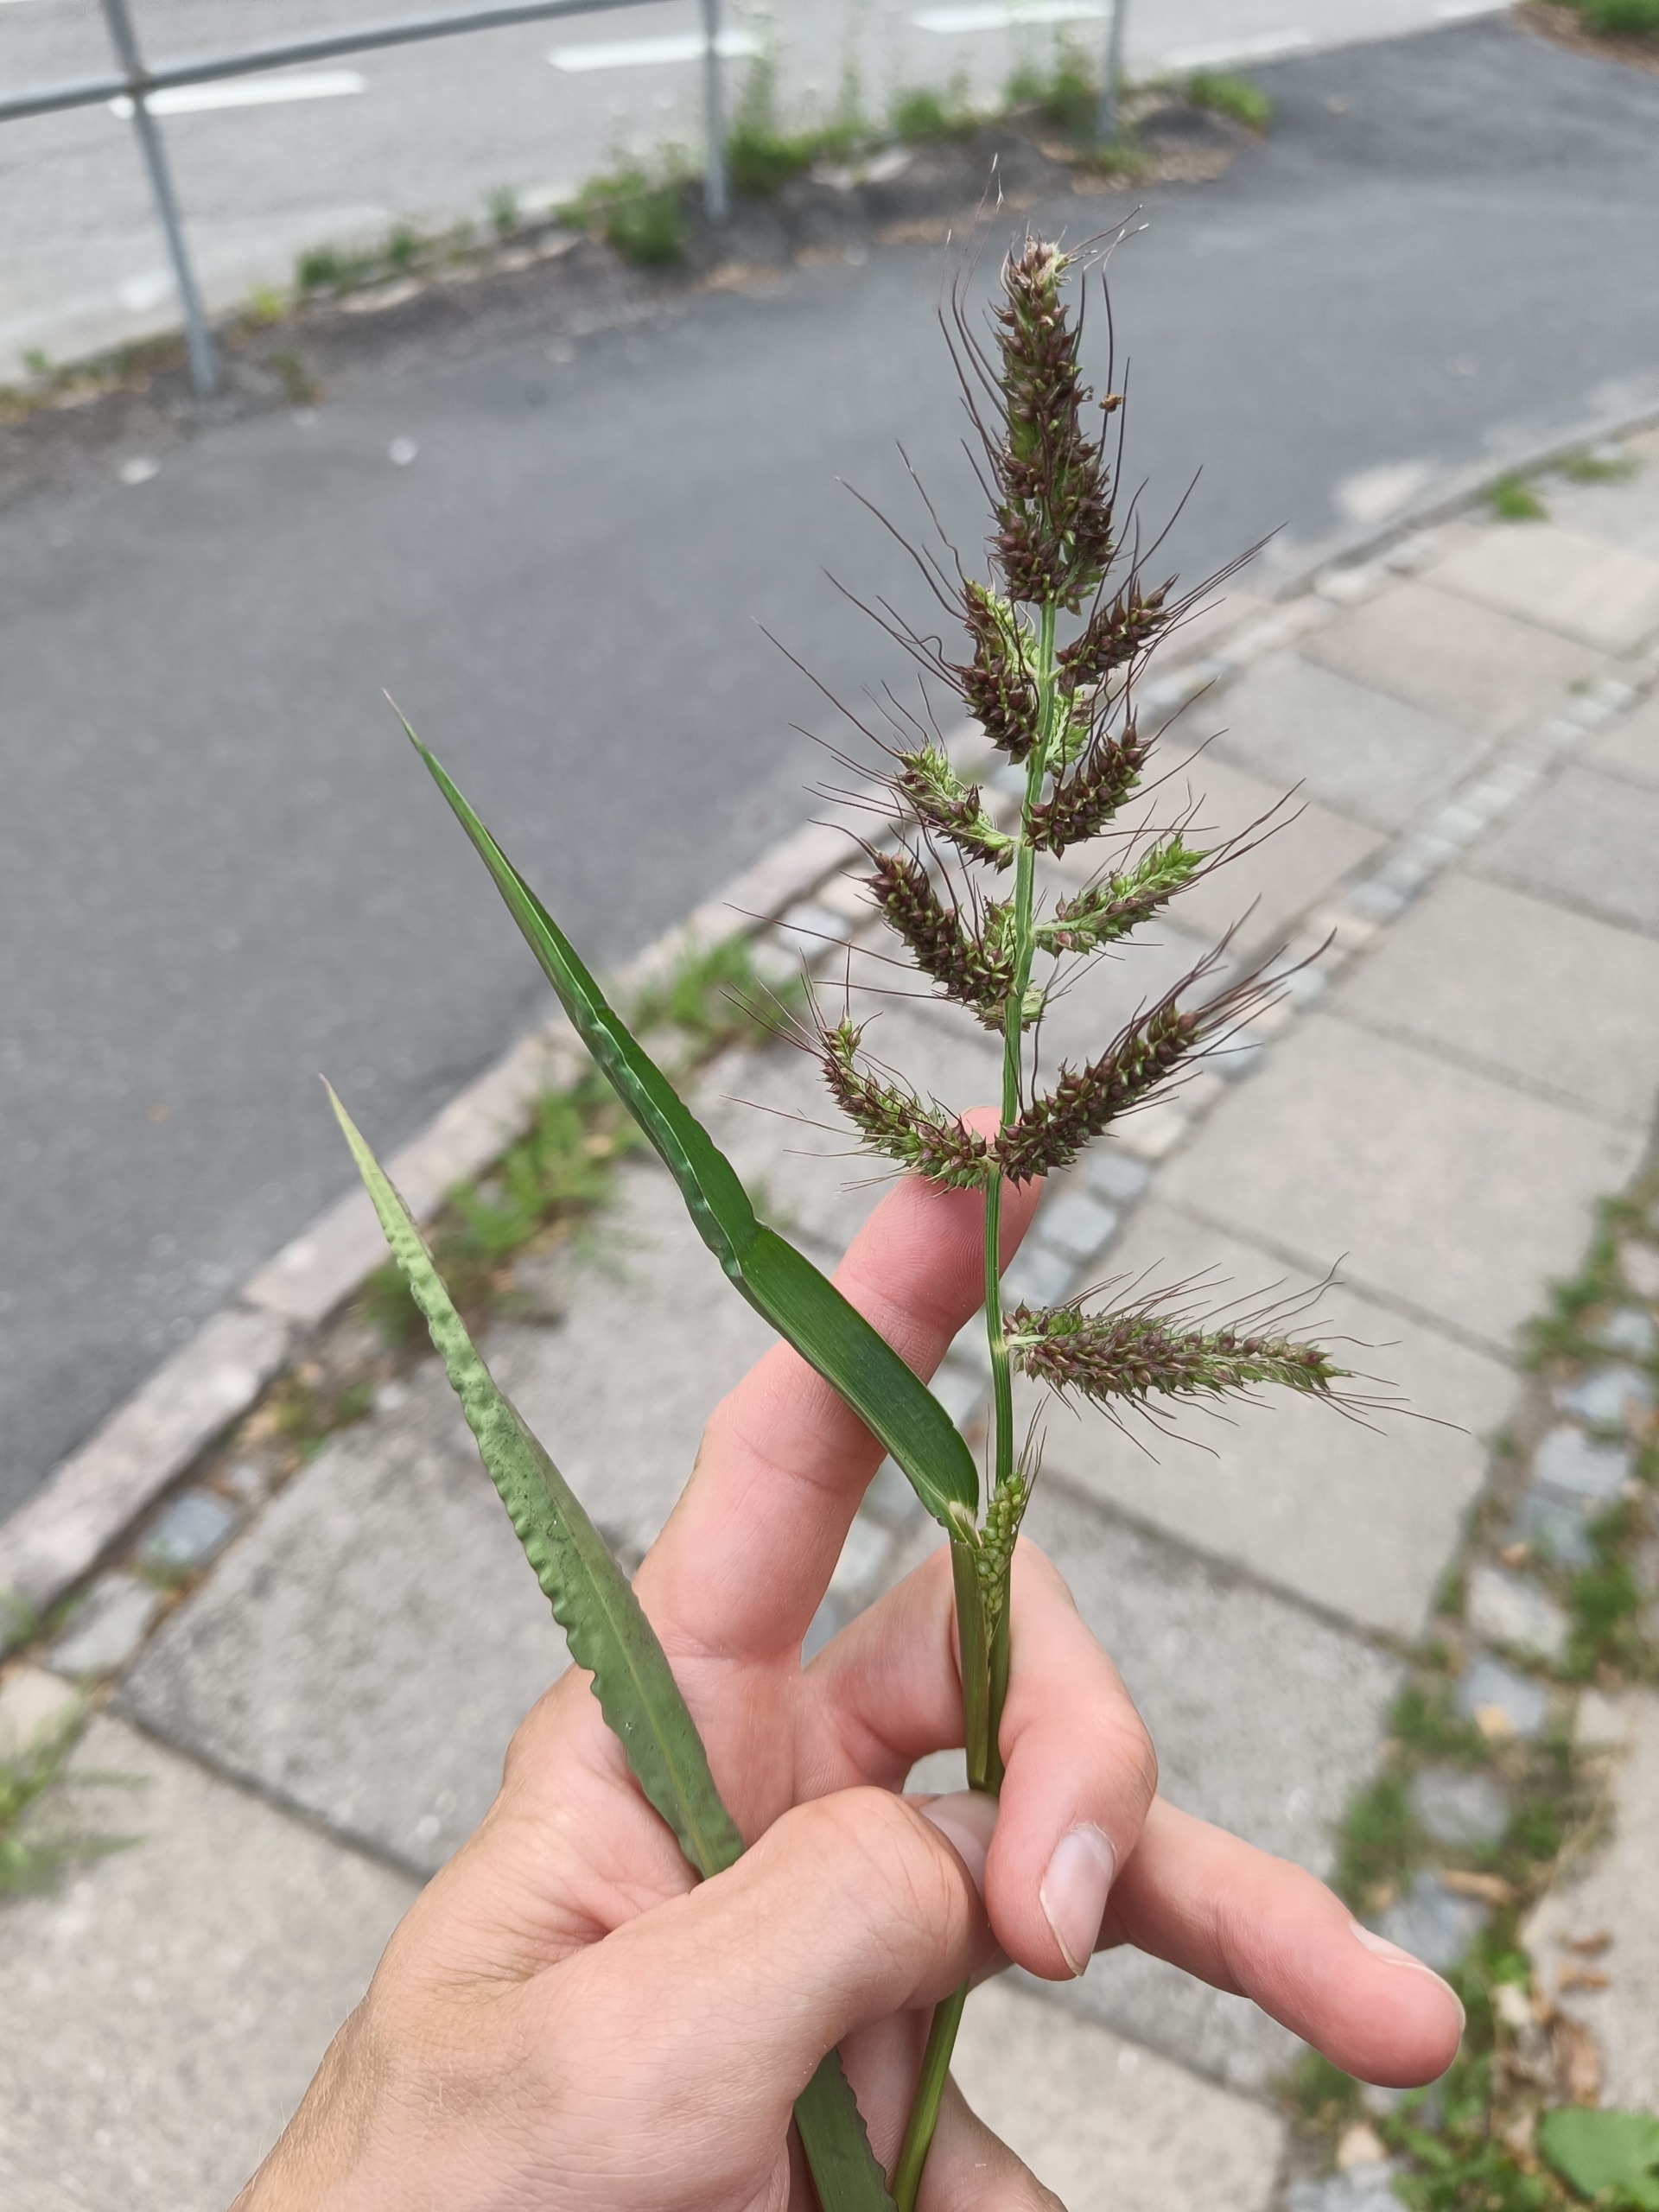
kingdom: Plantae
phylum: Tracheophyta
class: Liliopsida
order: Poales
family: Poaceae
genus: Echinochloa
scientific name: Echinochloa crus-galli
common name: Almindelig hanespore
